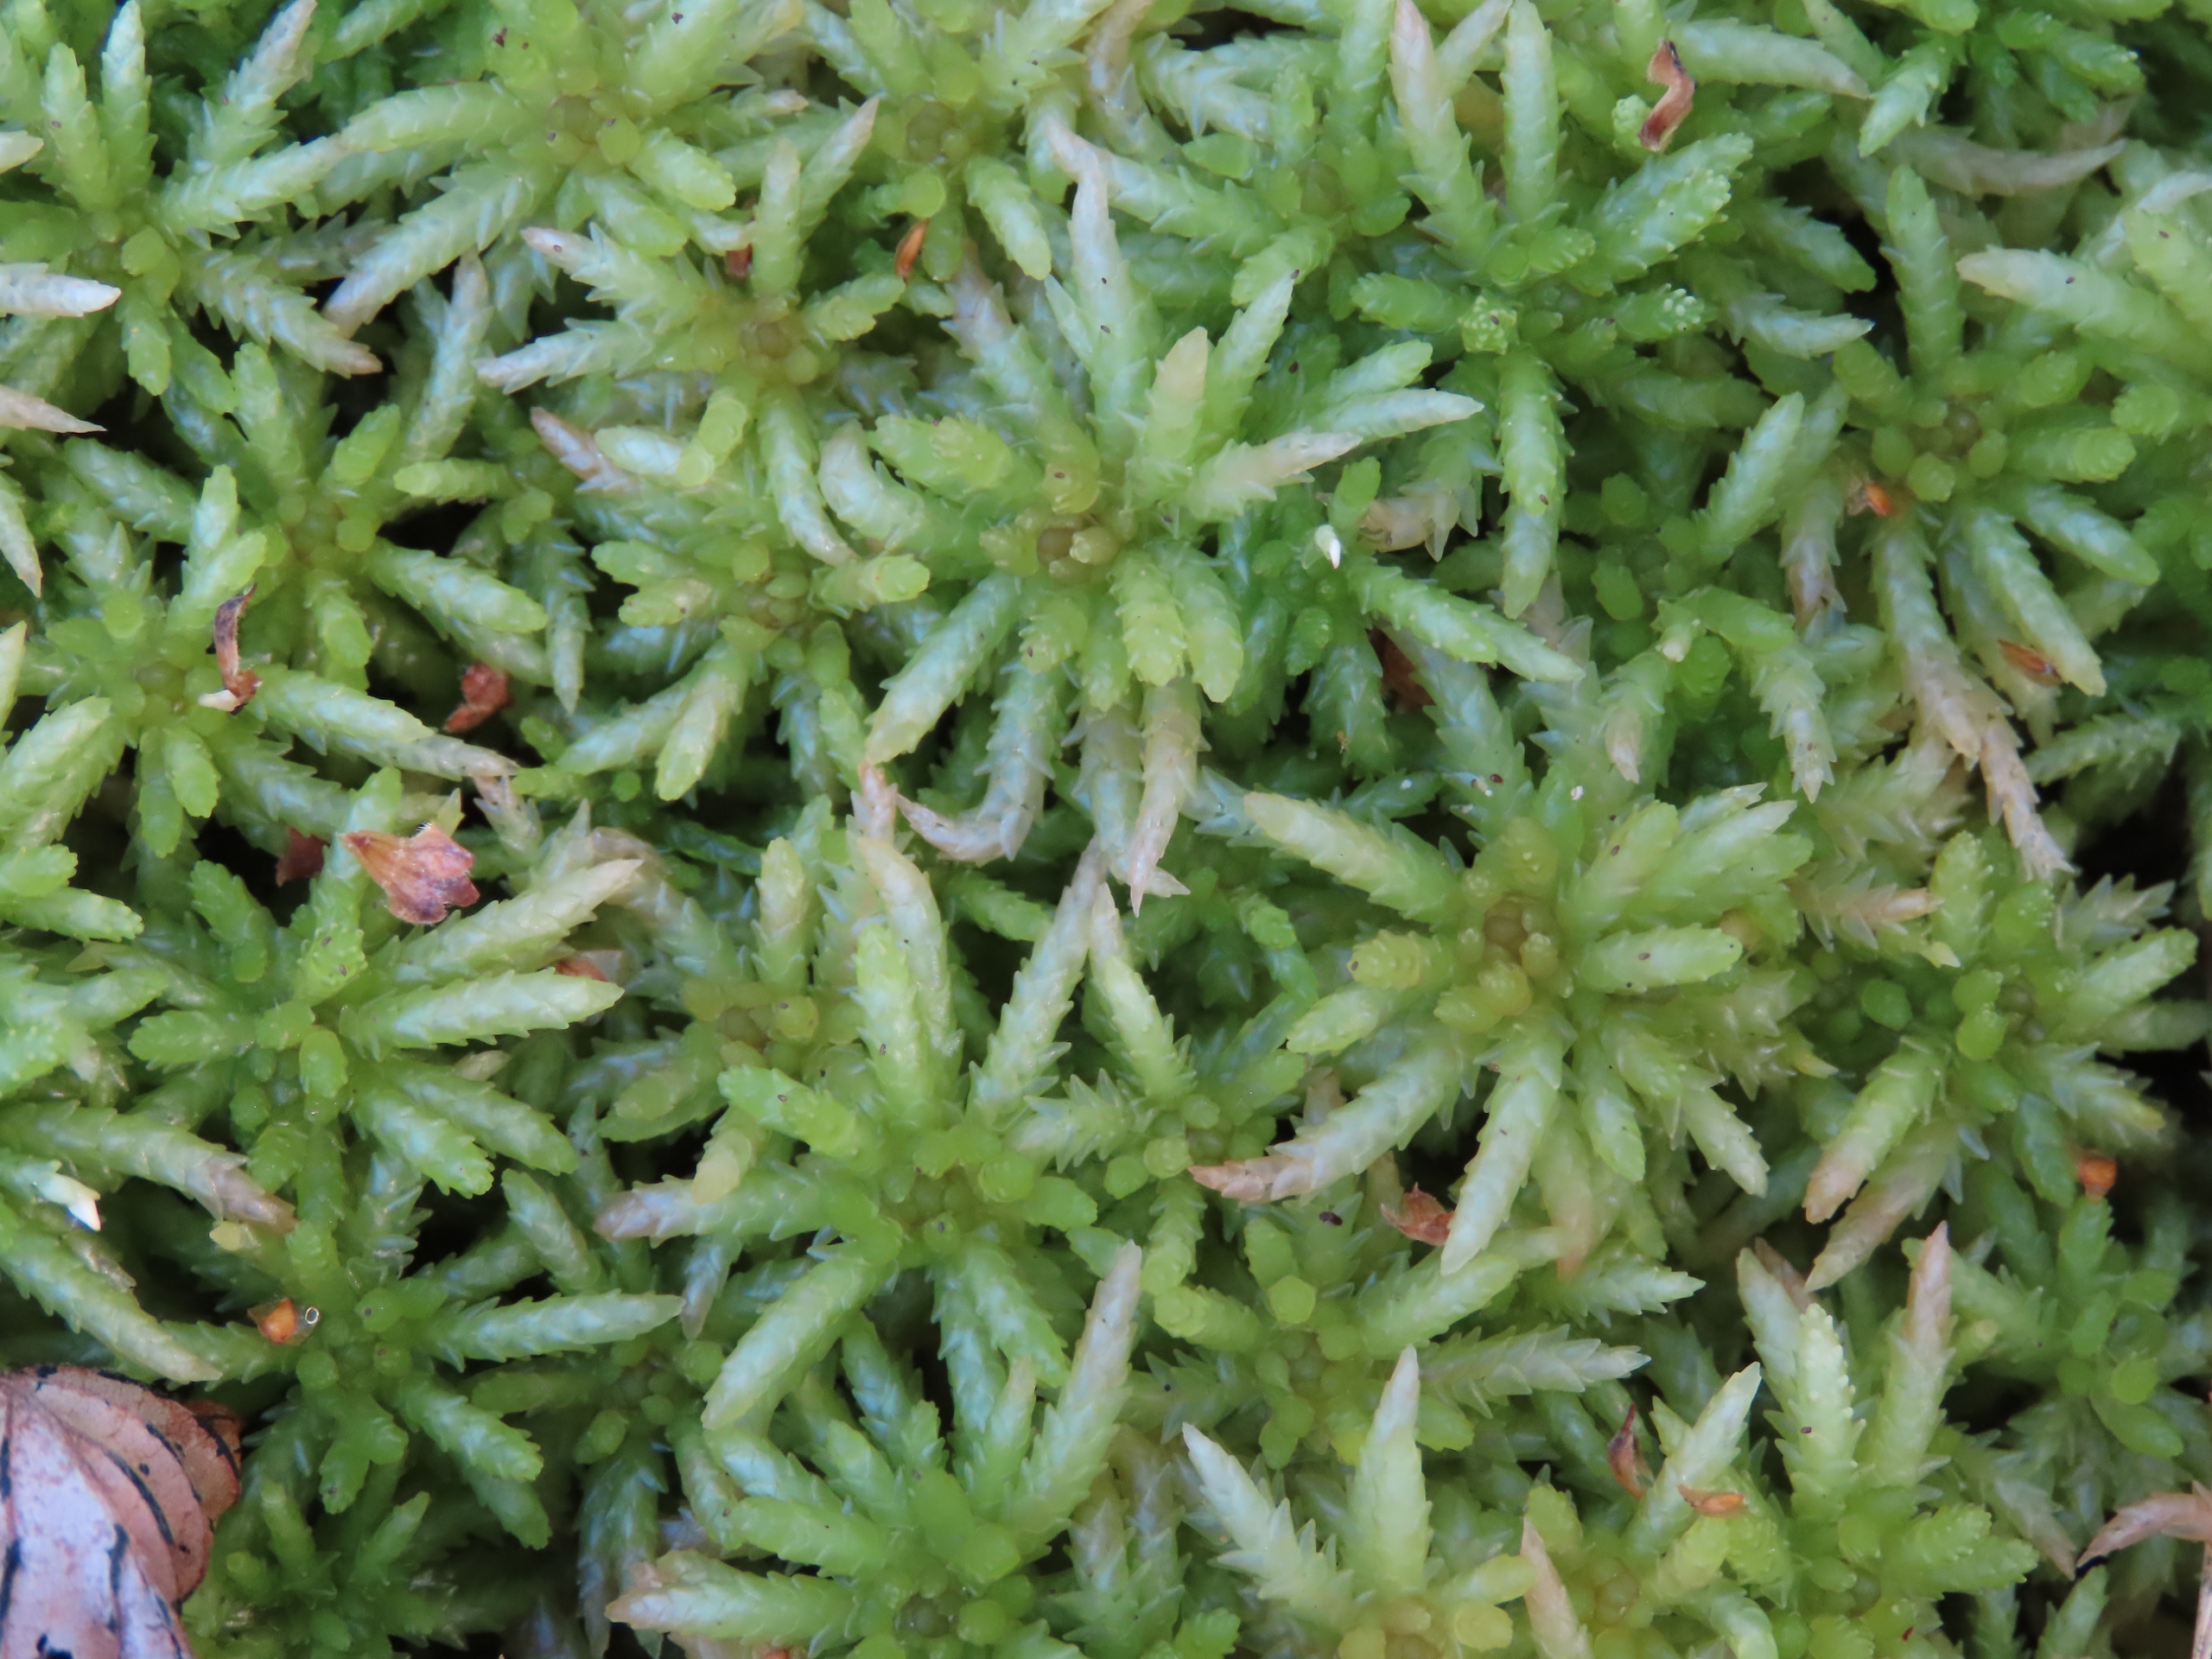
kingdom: Plantae
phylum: Bryophyta
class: Sphagnopsida
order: Sphagnales
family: Sphagnaceae
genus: Sphagnum
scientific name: Sphagnum palustre
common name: Almindelig tørvemos
